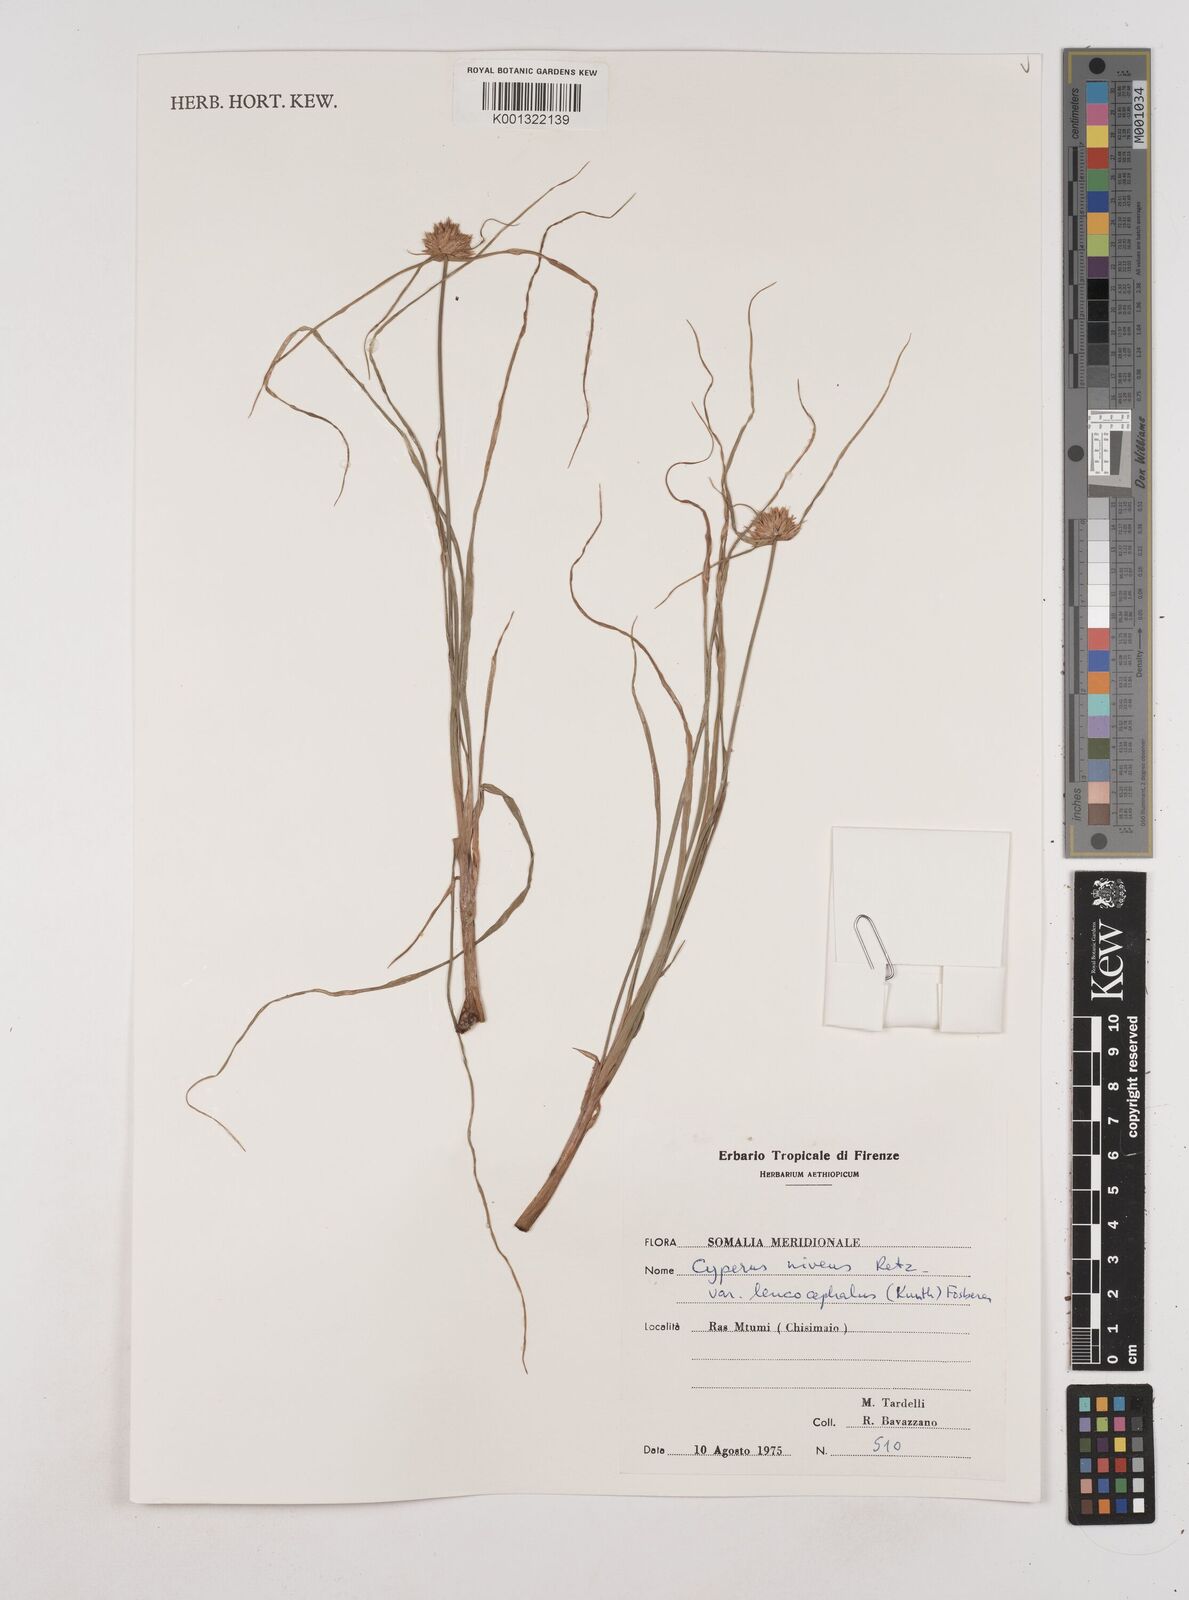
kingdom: Plantae
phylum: Tracheophyta
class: Liliopsida
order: Poales
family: Cyperaceae
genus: Cyperus
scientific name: Cyperus niveus
